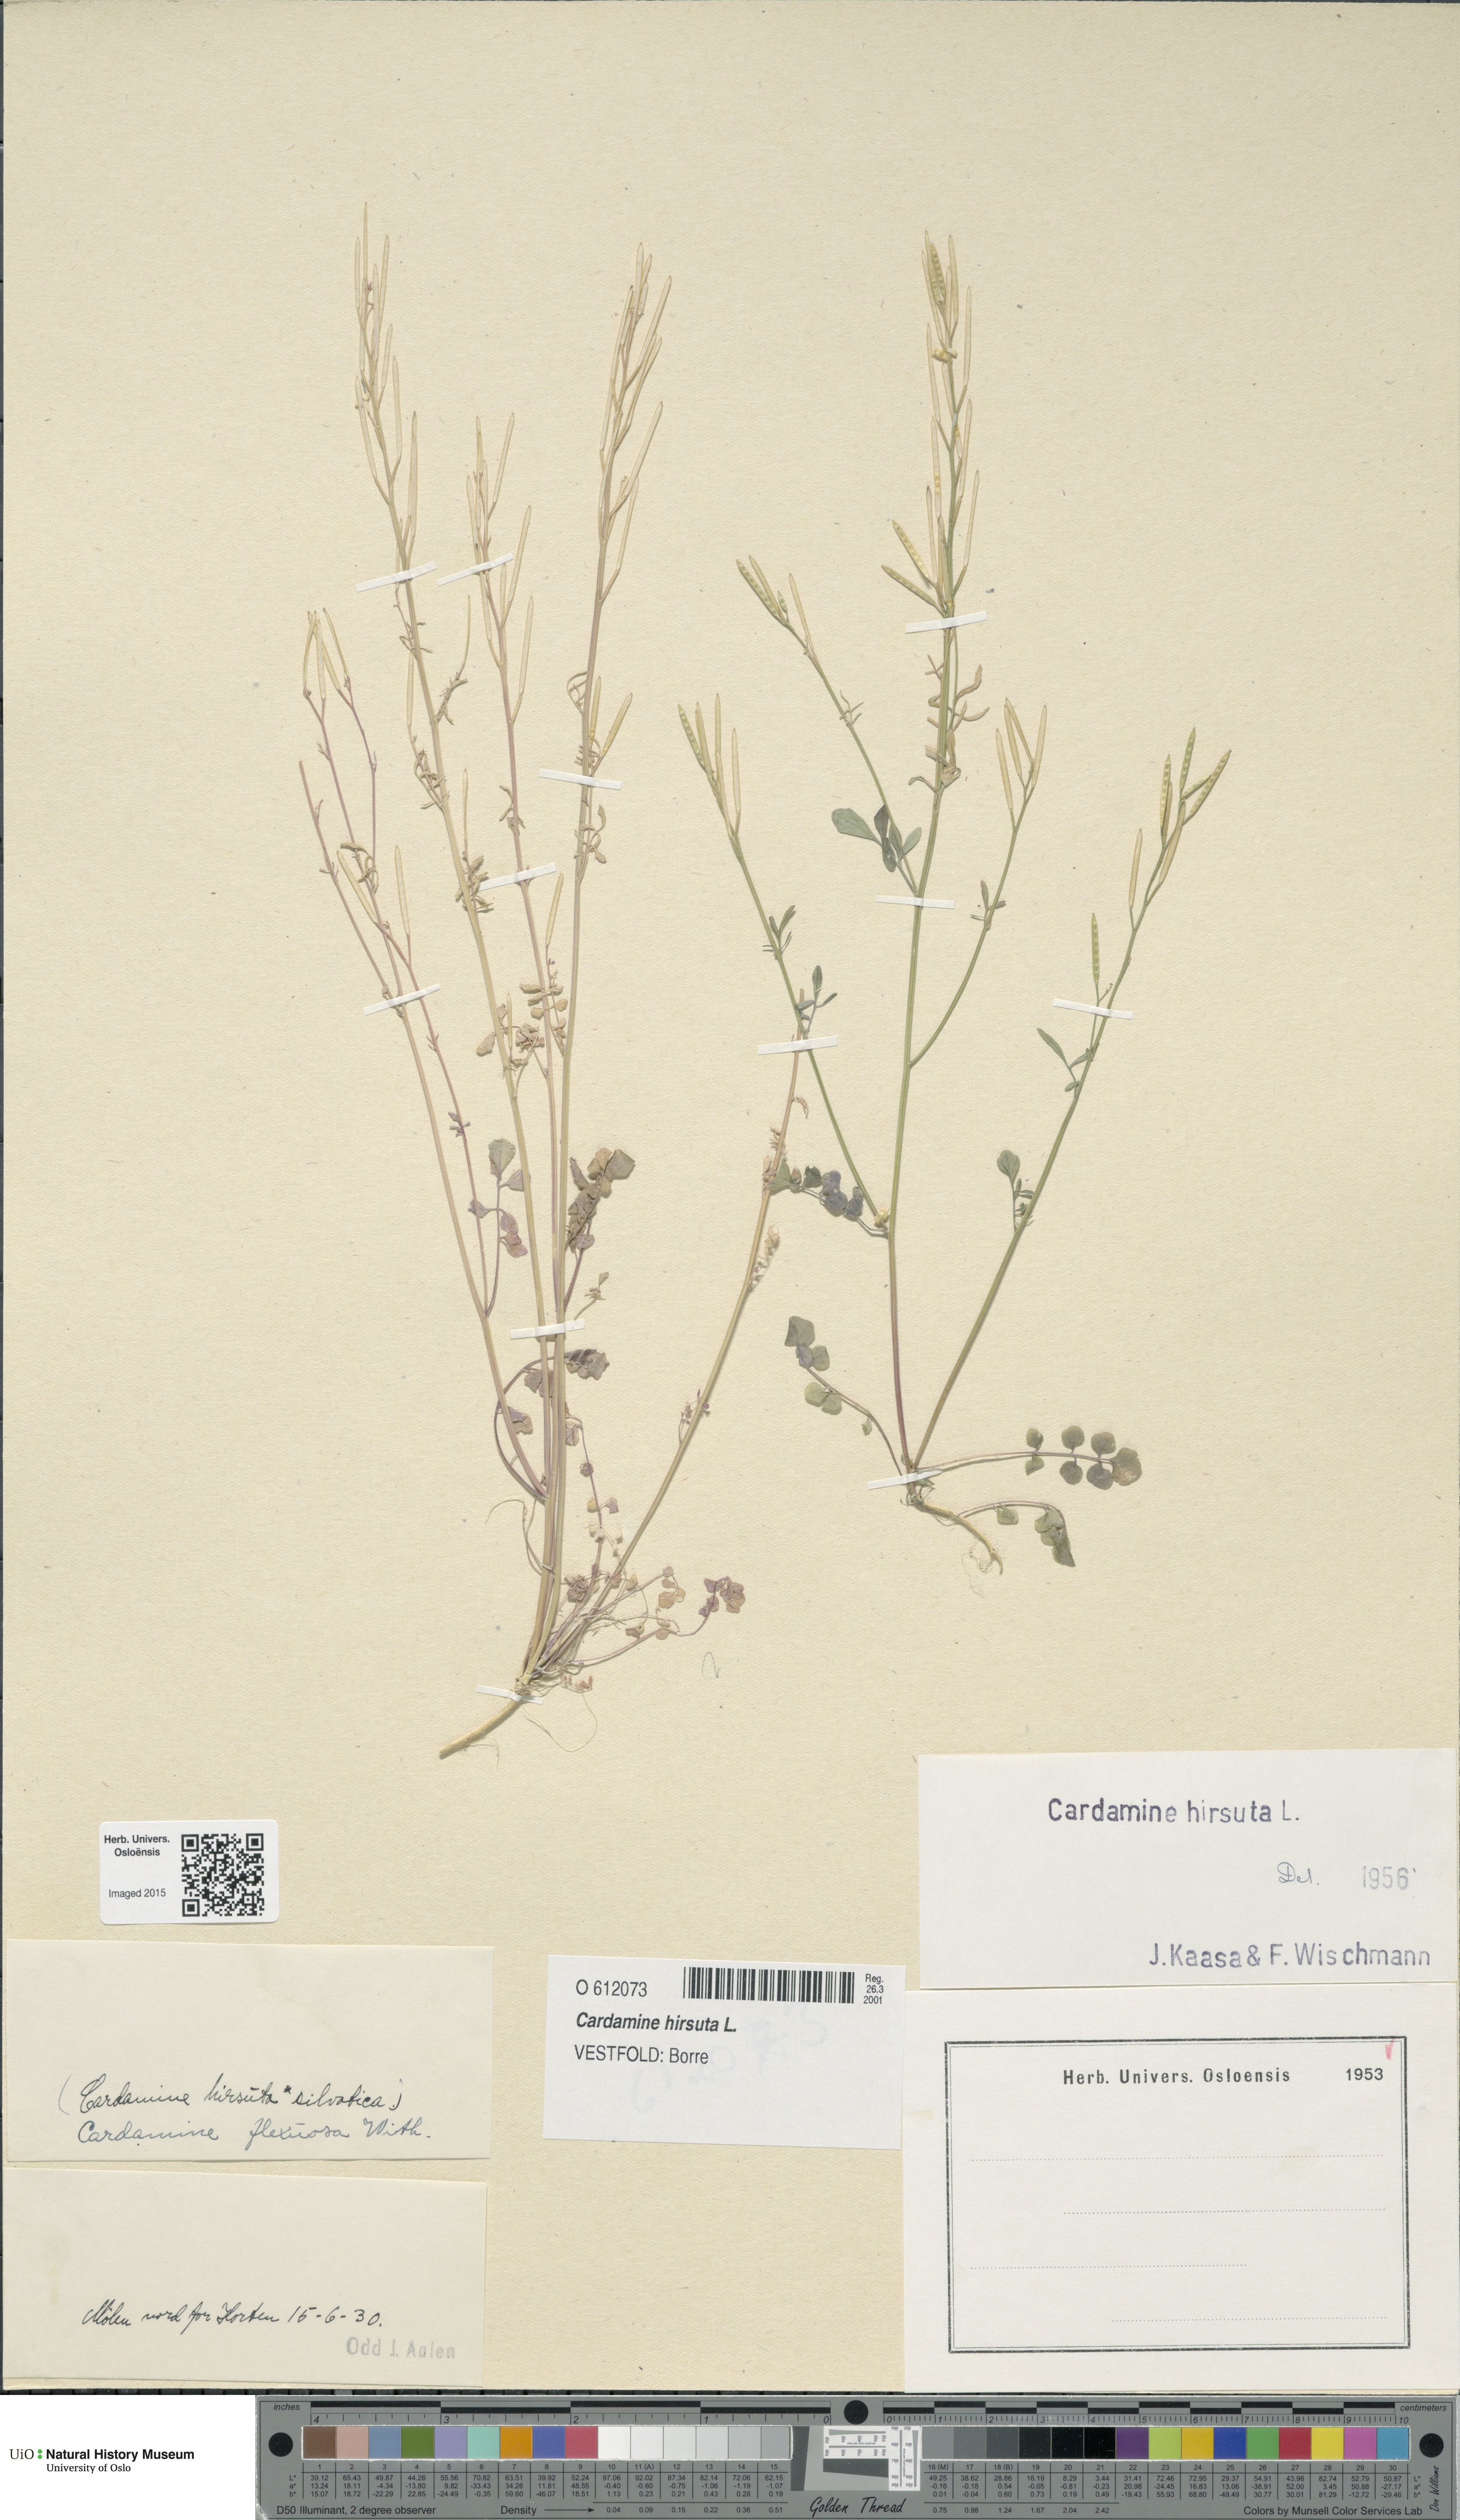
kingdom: Plantae
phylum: Tracheophyta
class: Magnoliopsida
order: Brassicales
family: Brassicaceae
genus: Cardamine
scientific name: Cardamine hirsuta
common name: Hairy bittercress
